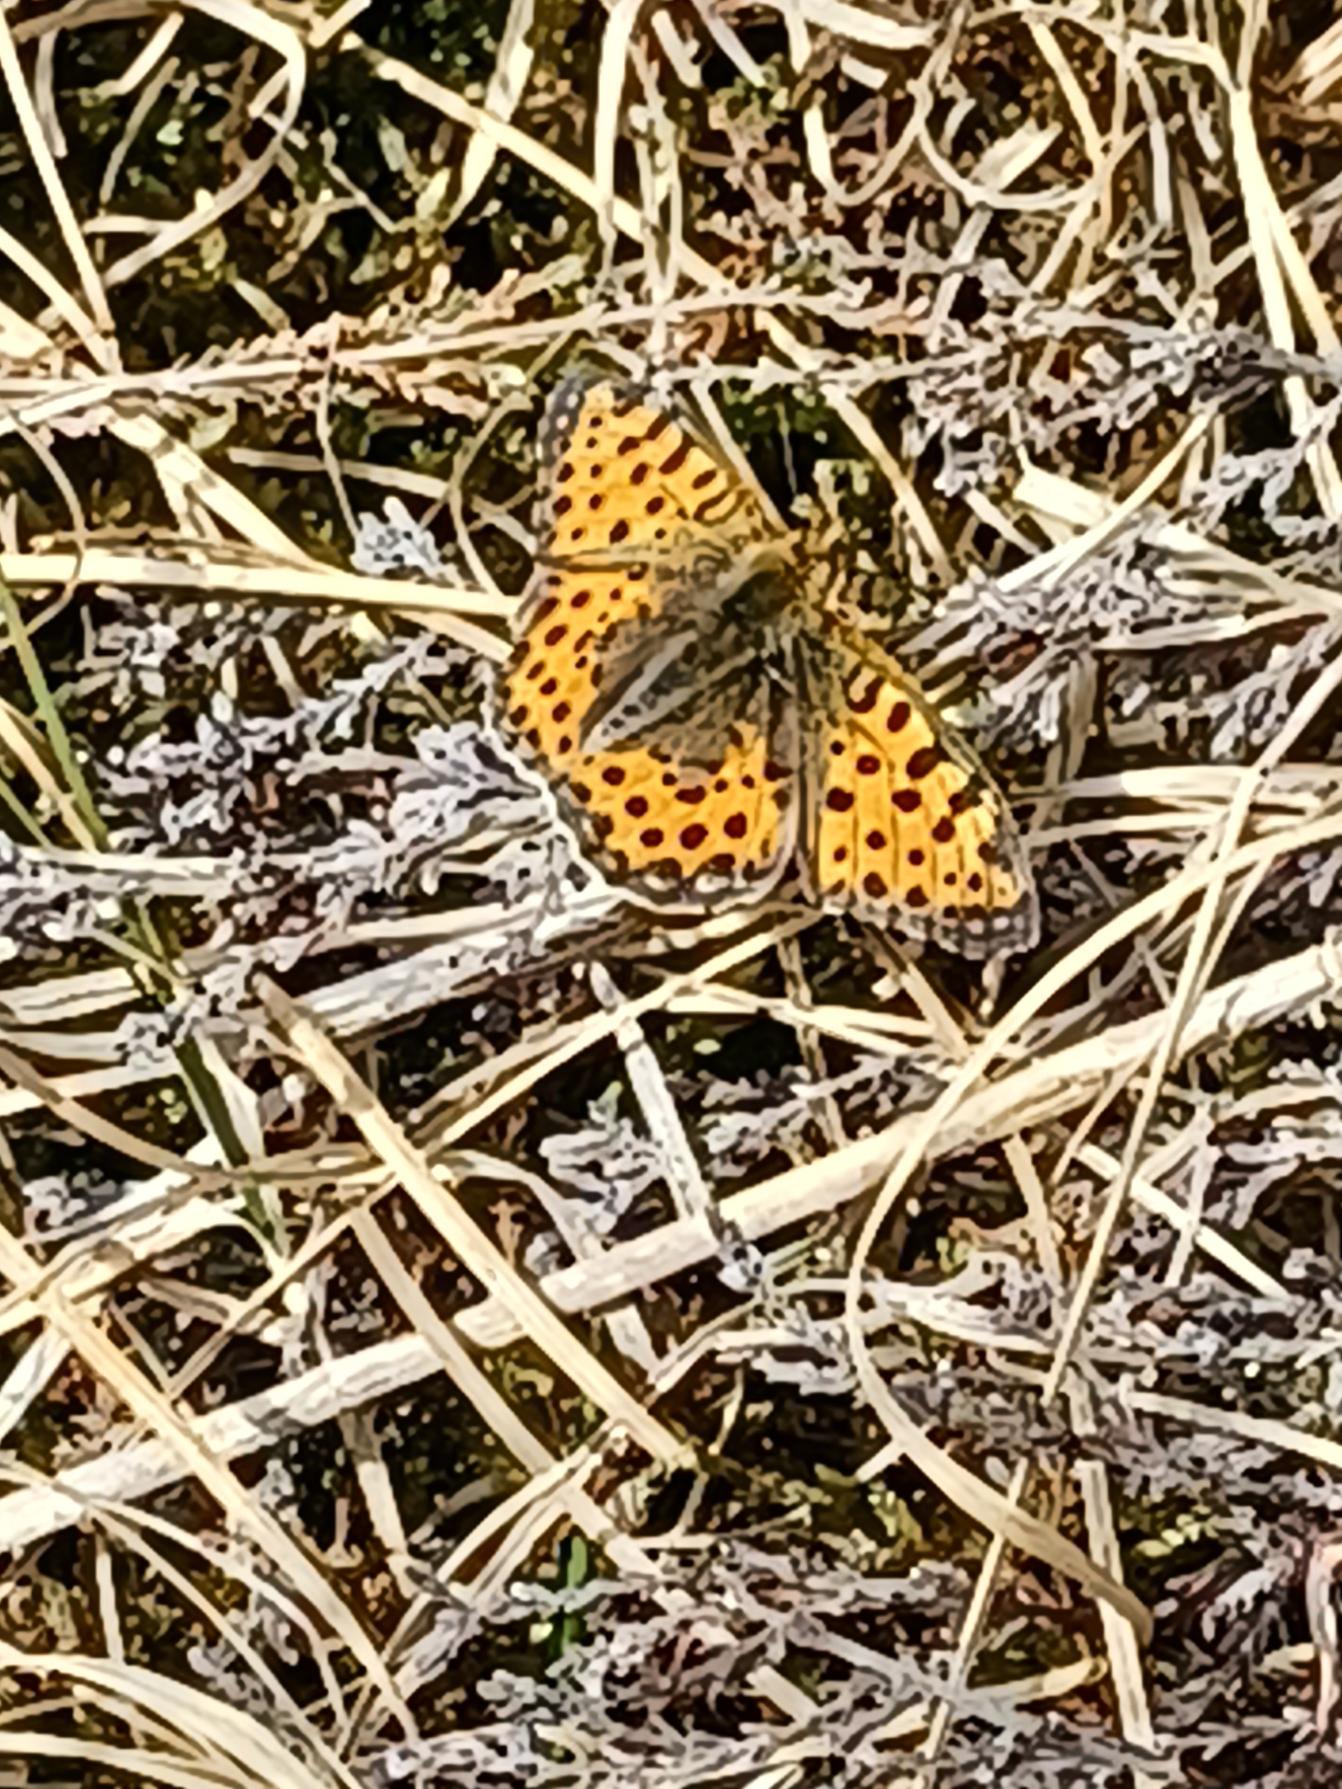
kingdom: Animalia
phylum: Arthropoda
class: Insecta
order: Lepidoptera
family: Nymphalidae
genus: Issoria
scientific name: Issoria lathonia
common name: Storplettet perlemorsommerfugl
